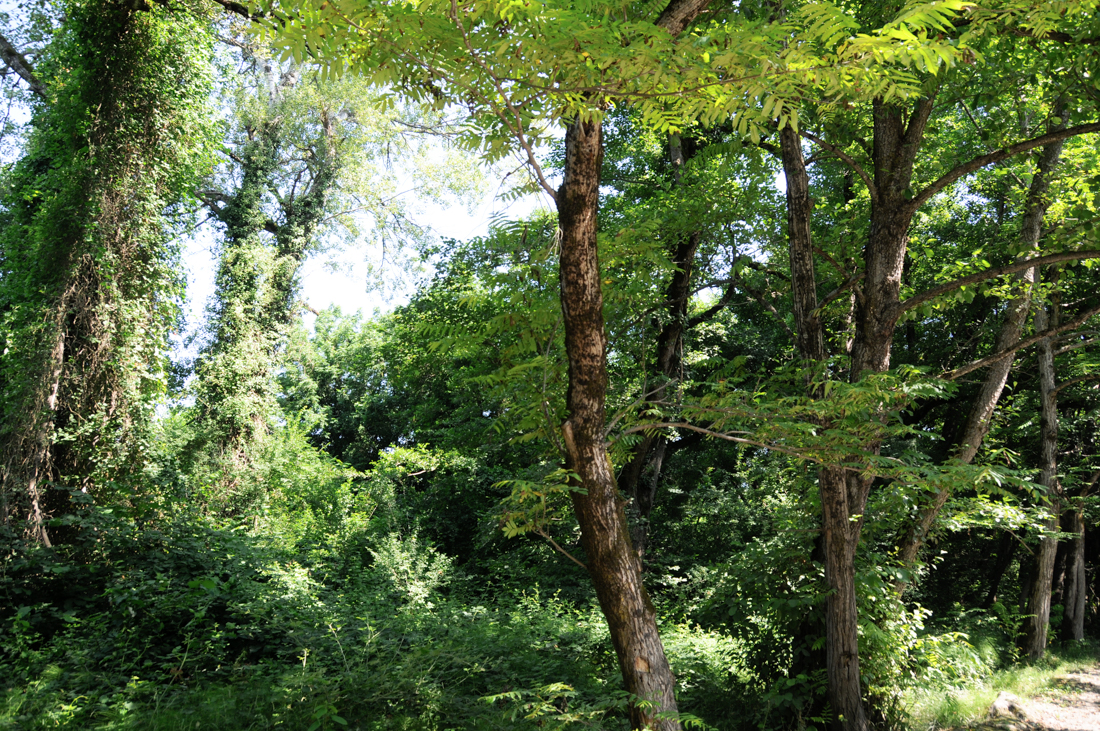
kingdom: Plantae
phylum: Tracheophyta
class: Magnoliopsida
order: Fagales
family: Juglandaceae
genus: Pterocarya
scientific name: Pterocarya fraxinifolia
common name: Caucasian wingnut
